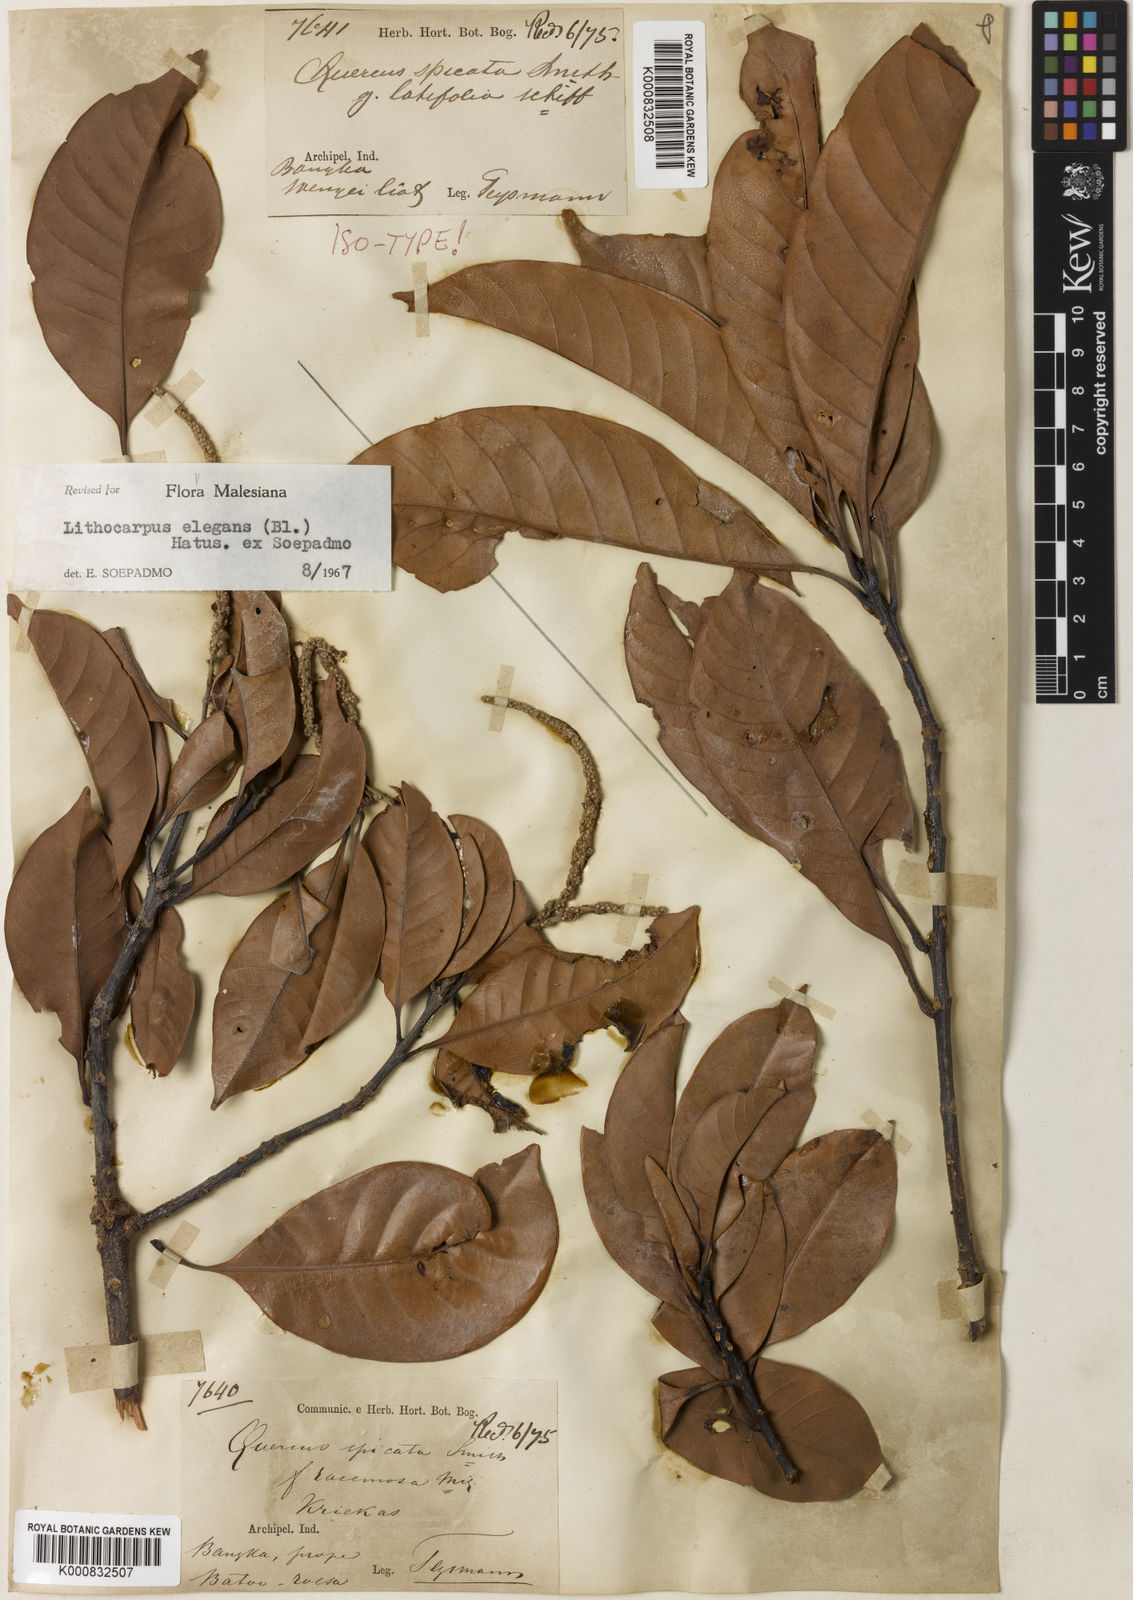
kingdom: Plantae
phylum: Tracheophyta
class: Magnoliopsida
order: Fagales
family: Fagaceae
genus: Lithocarpus
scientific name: Lithocarpus elegans
